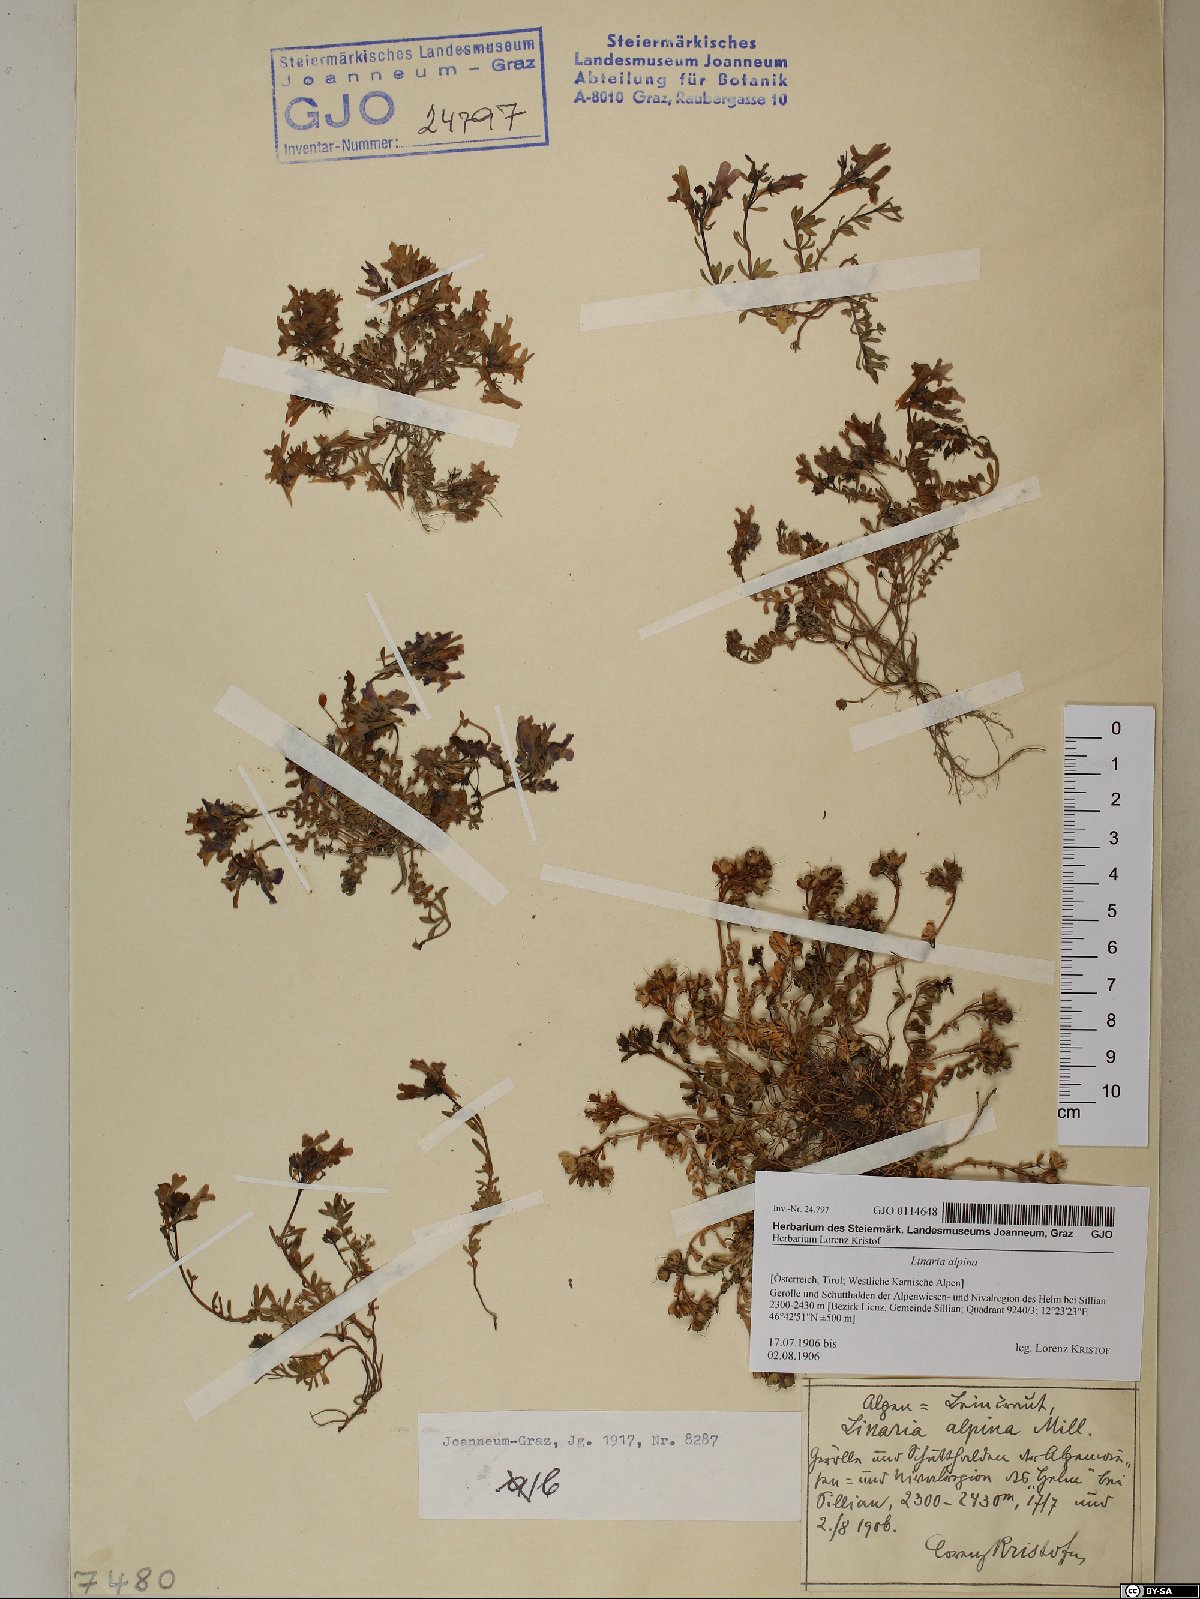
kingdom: Plantae
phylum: Tracheophyta
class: Magnoliopsida
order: Lamiales
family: Plantaginaceae
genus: Linaria
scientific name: Linaria alpina
